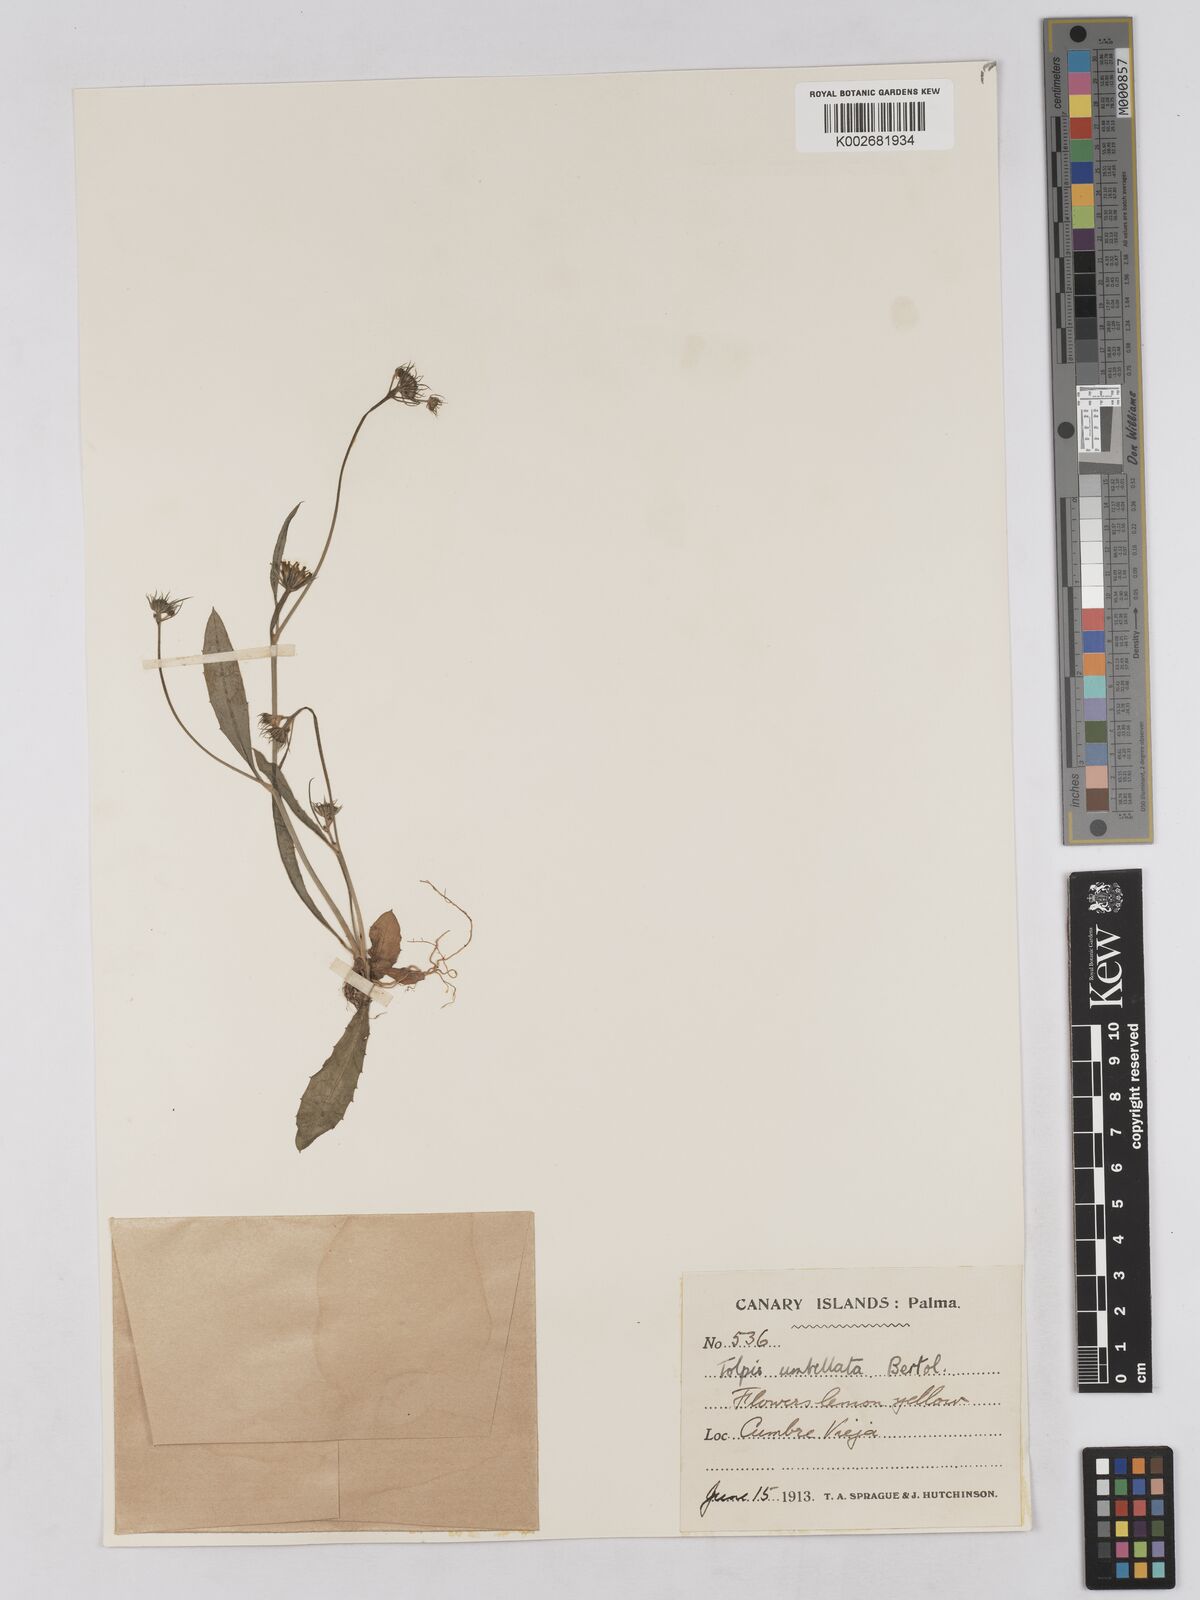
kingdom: Plantae
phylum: Tracheophyta
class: Magnoliopsida
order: Asterales
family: Asteraceae
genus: Tolpis
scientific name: Tolpis umbellata
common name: Yellow hawkweed
